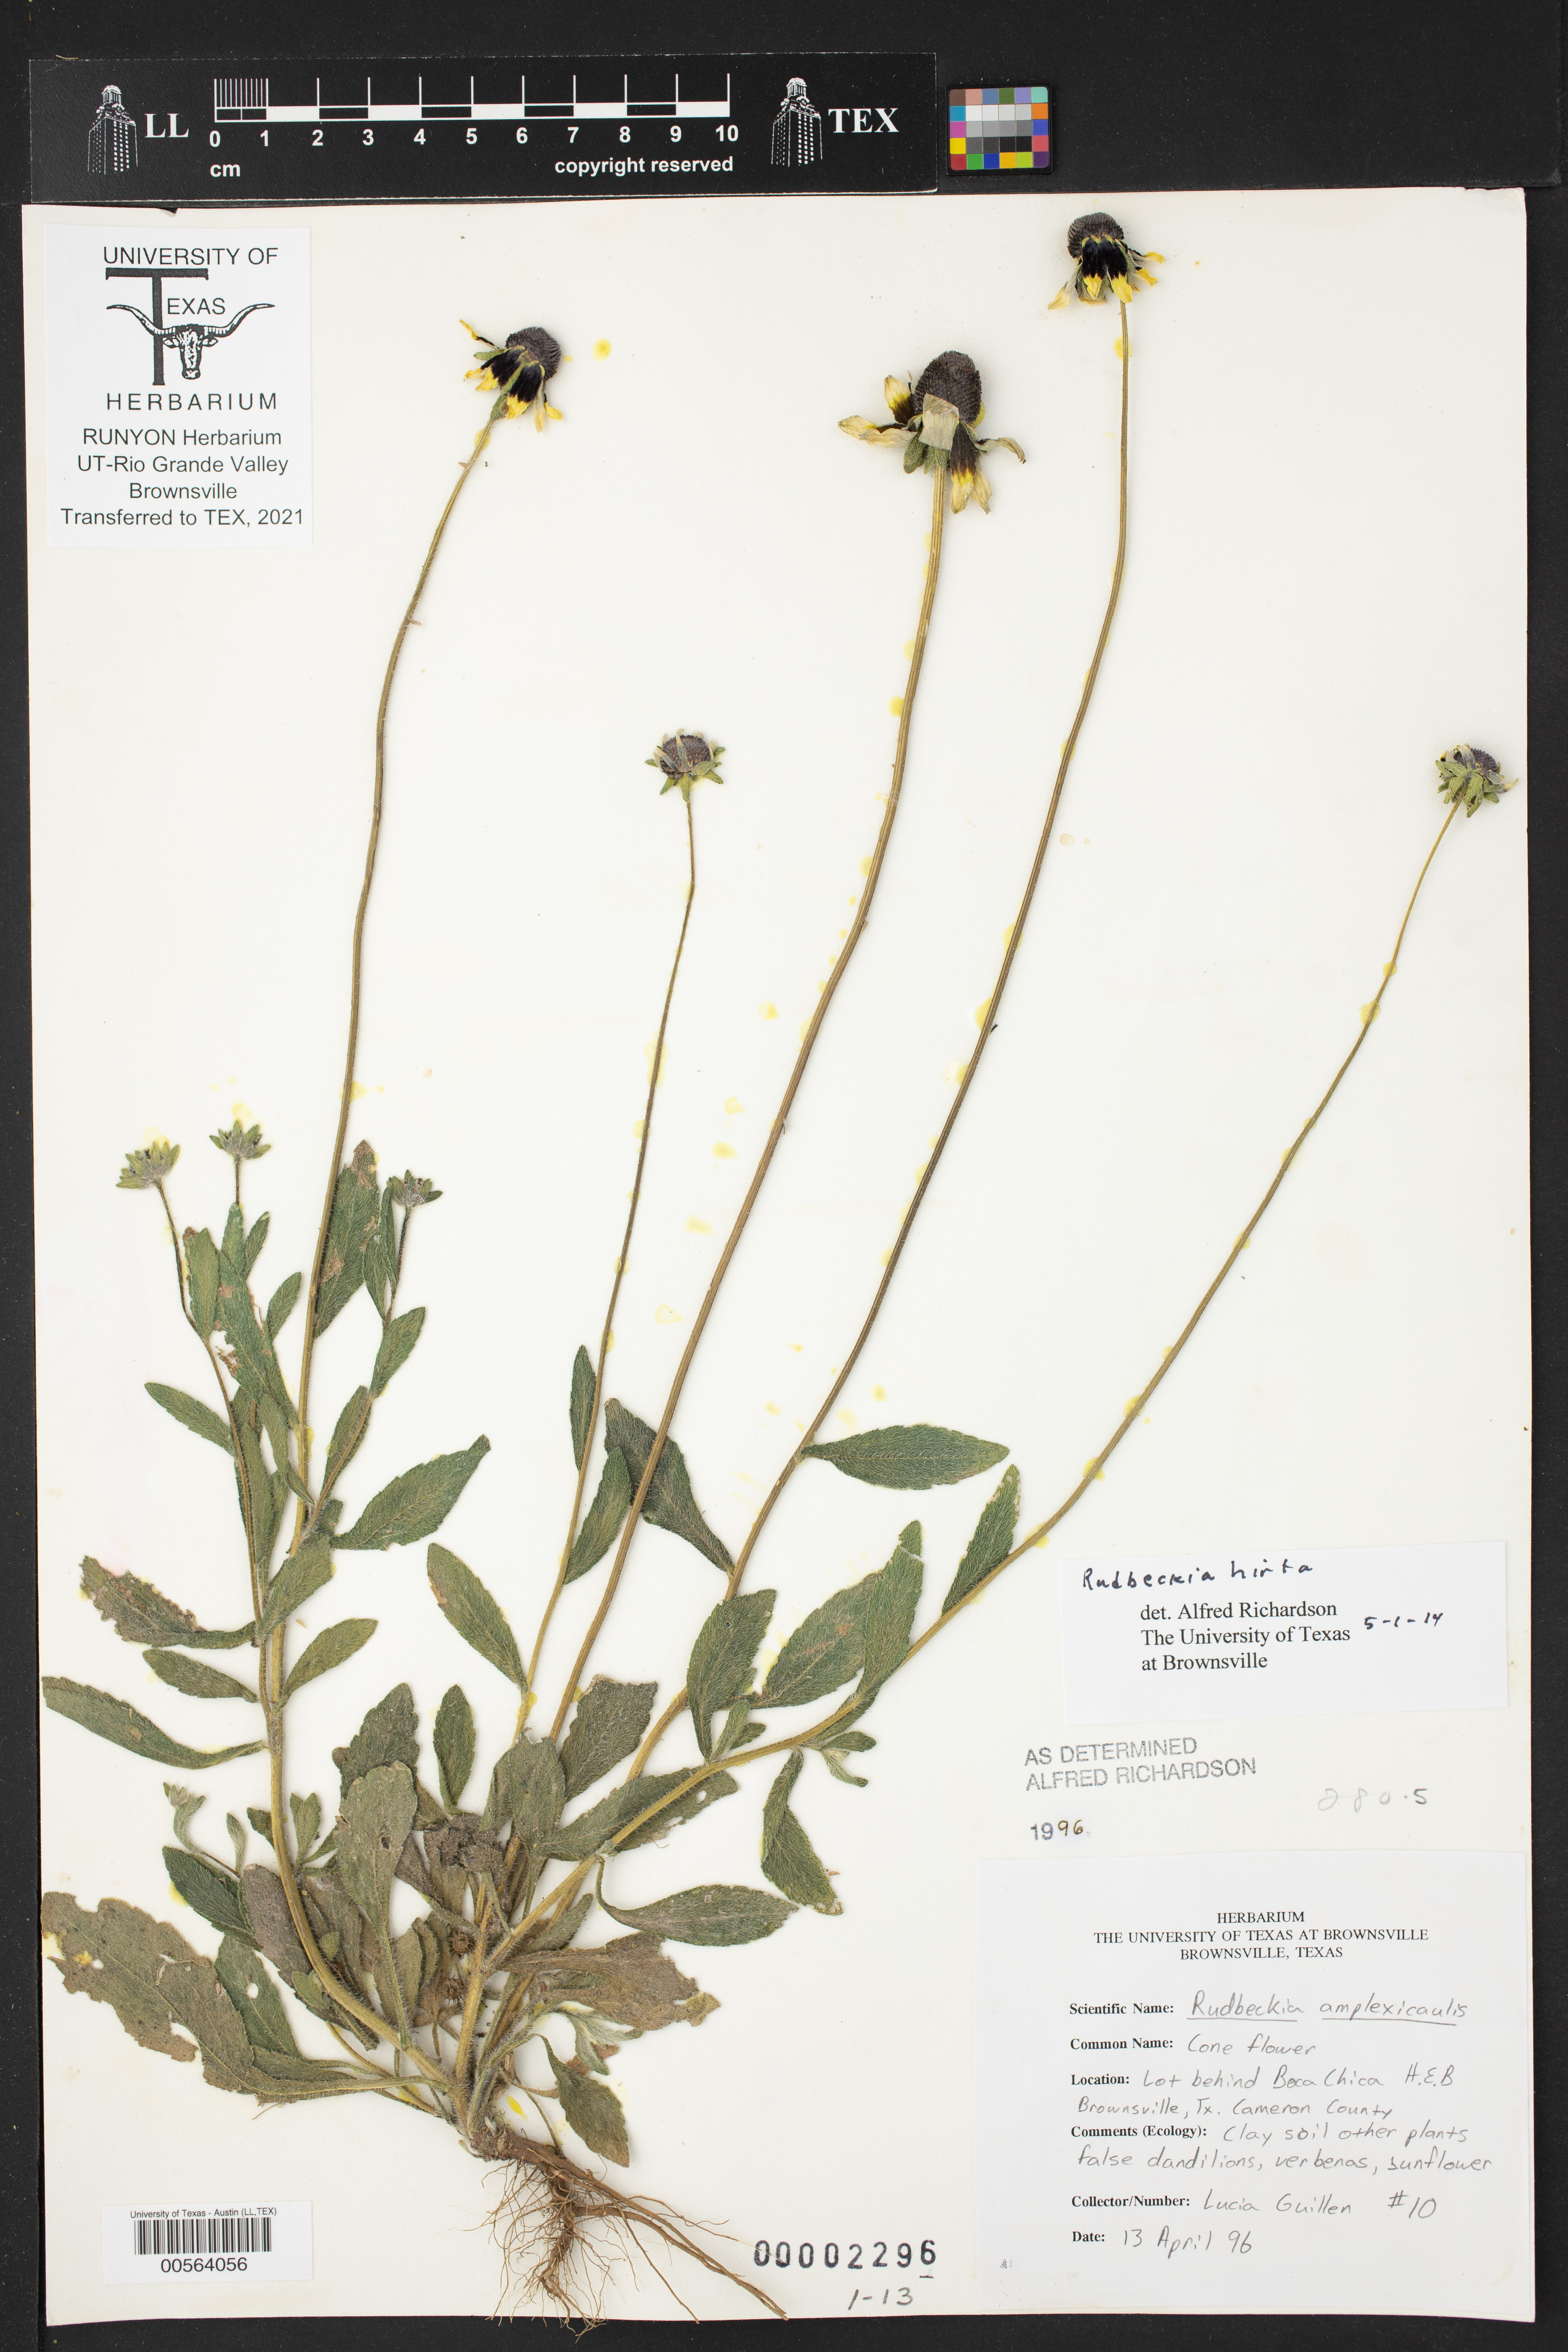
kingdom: Plantae
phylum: Tracheophyta
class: Magnoliopsida
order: Asterales
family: Asteraceae
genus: Rudbeckia
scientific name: Rudbeckia hirta
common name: Black-eyed-susan
